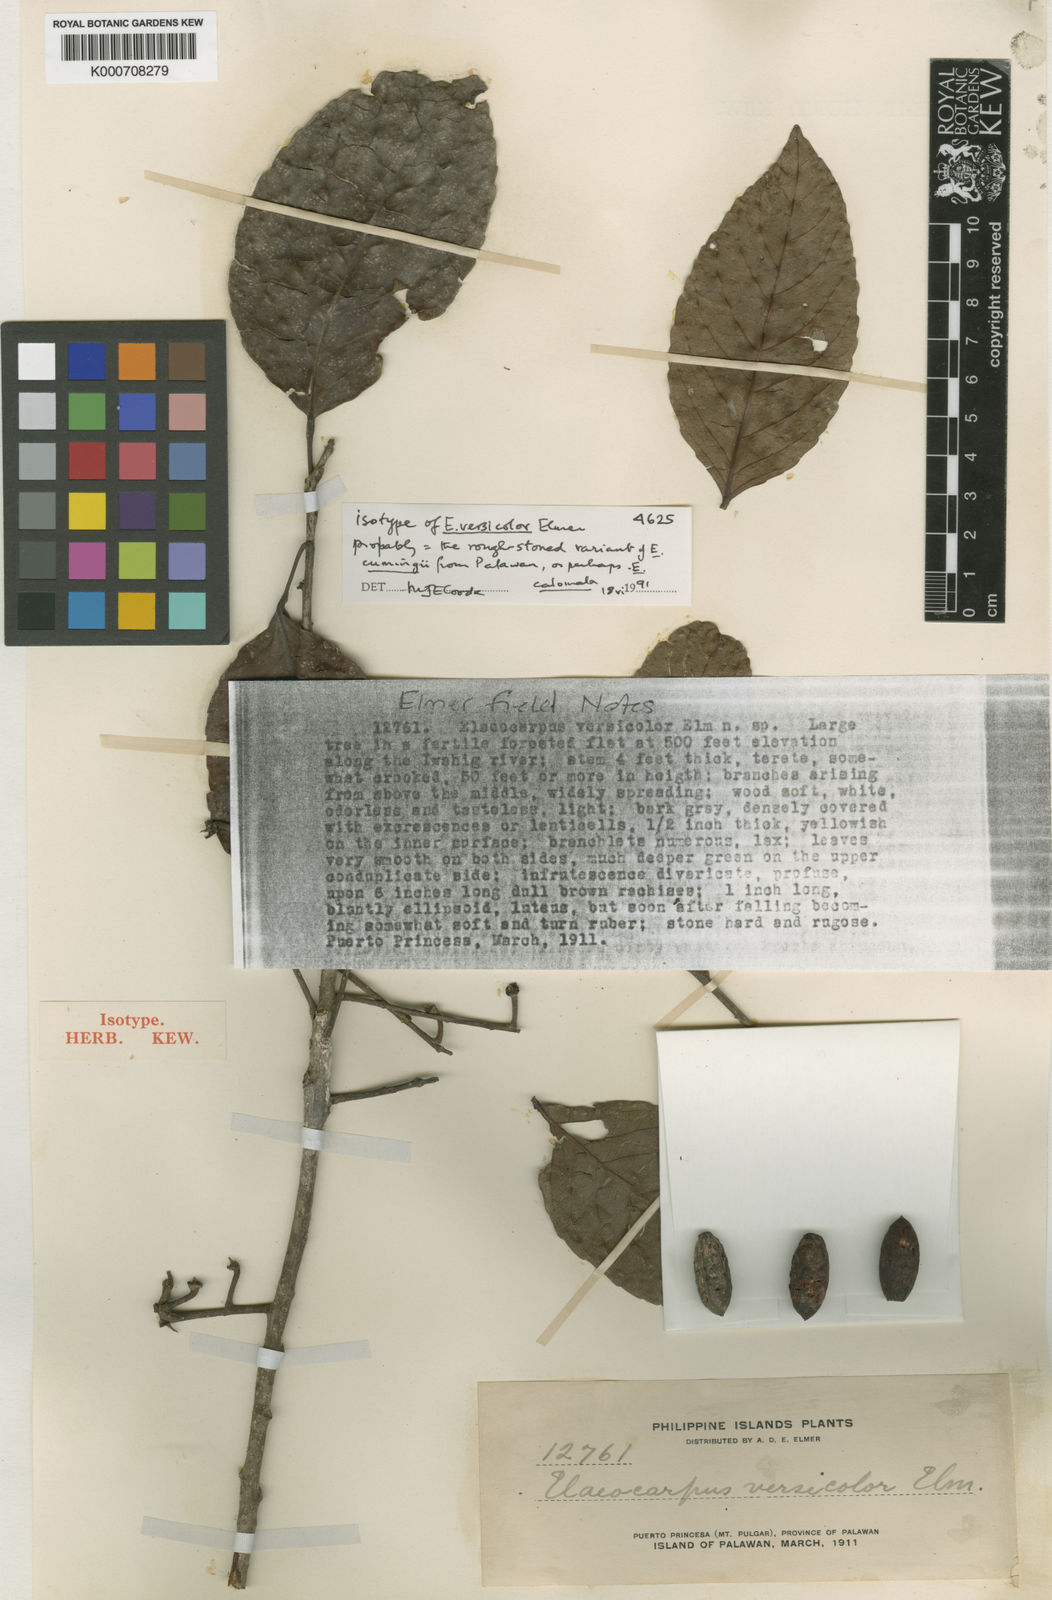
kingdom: Plantae
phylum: Tracheophyta
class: Magnoliopsida
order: Oxalidales
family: Elaeocarpaceae
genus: Elaeocarpus
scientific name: Elaeocarpus cumingii
